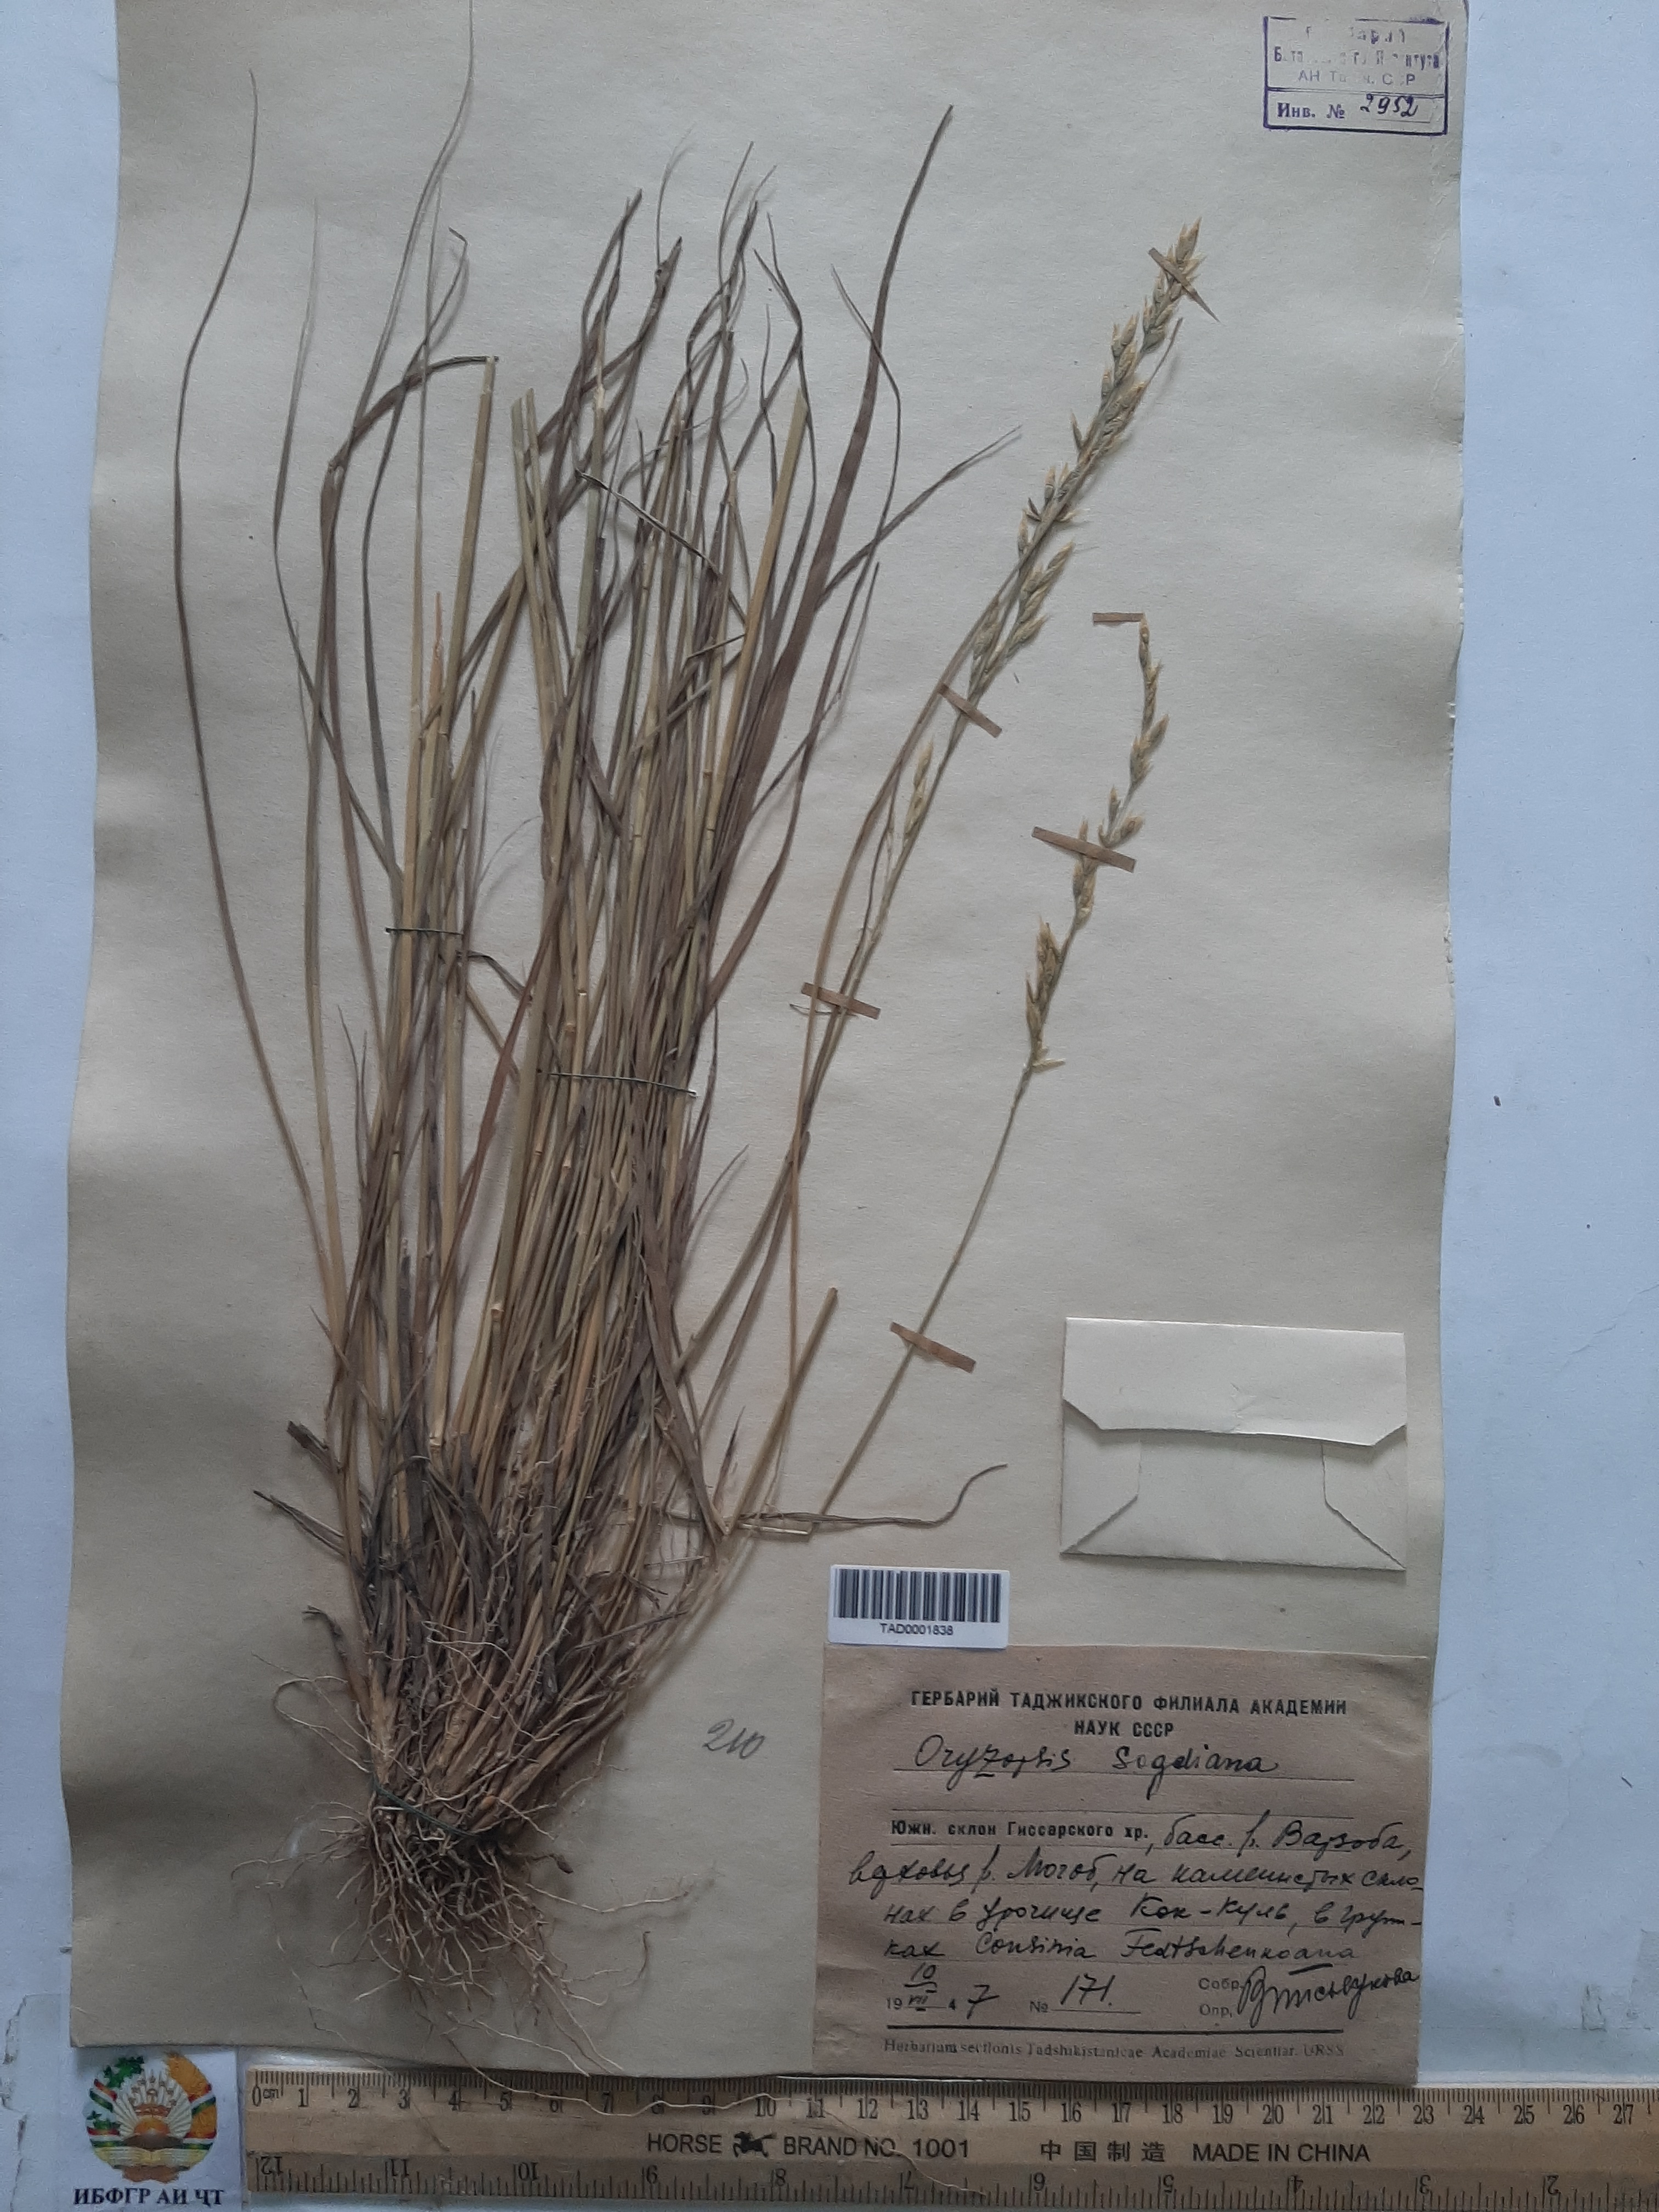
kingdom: Plantae
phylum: Tracheophyta
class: Liliopsida
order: Poales
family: Poaceae
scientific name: Poaceae
